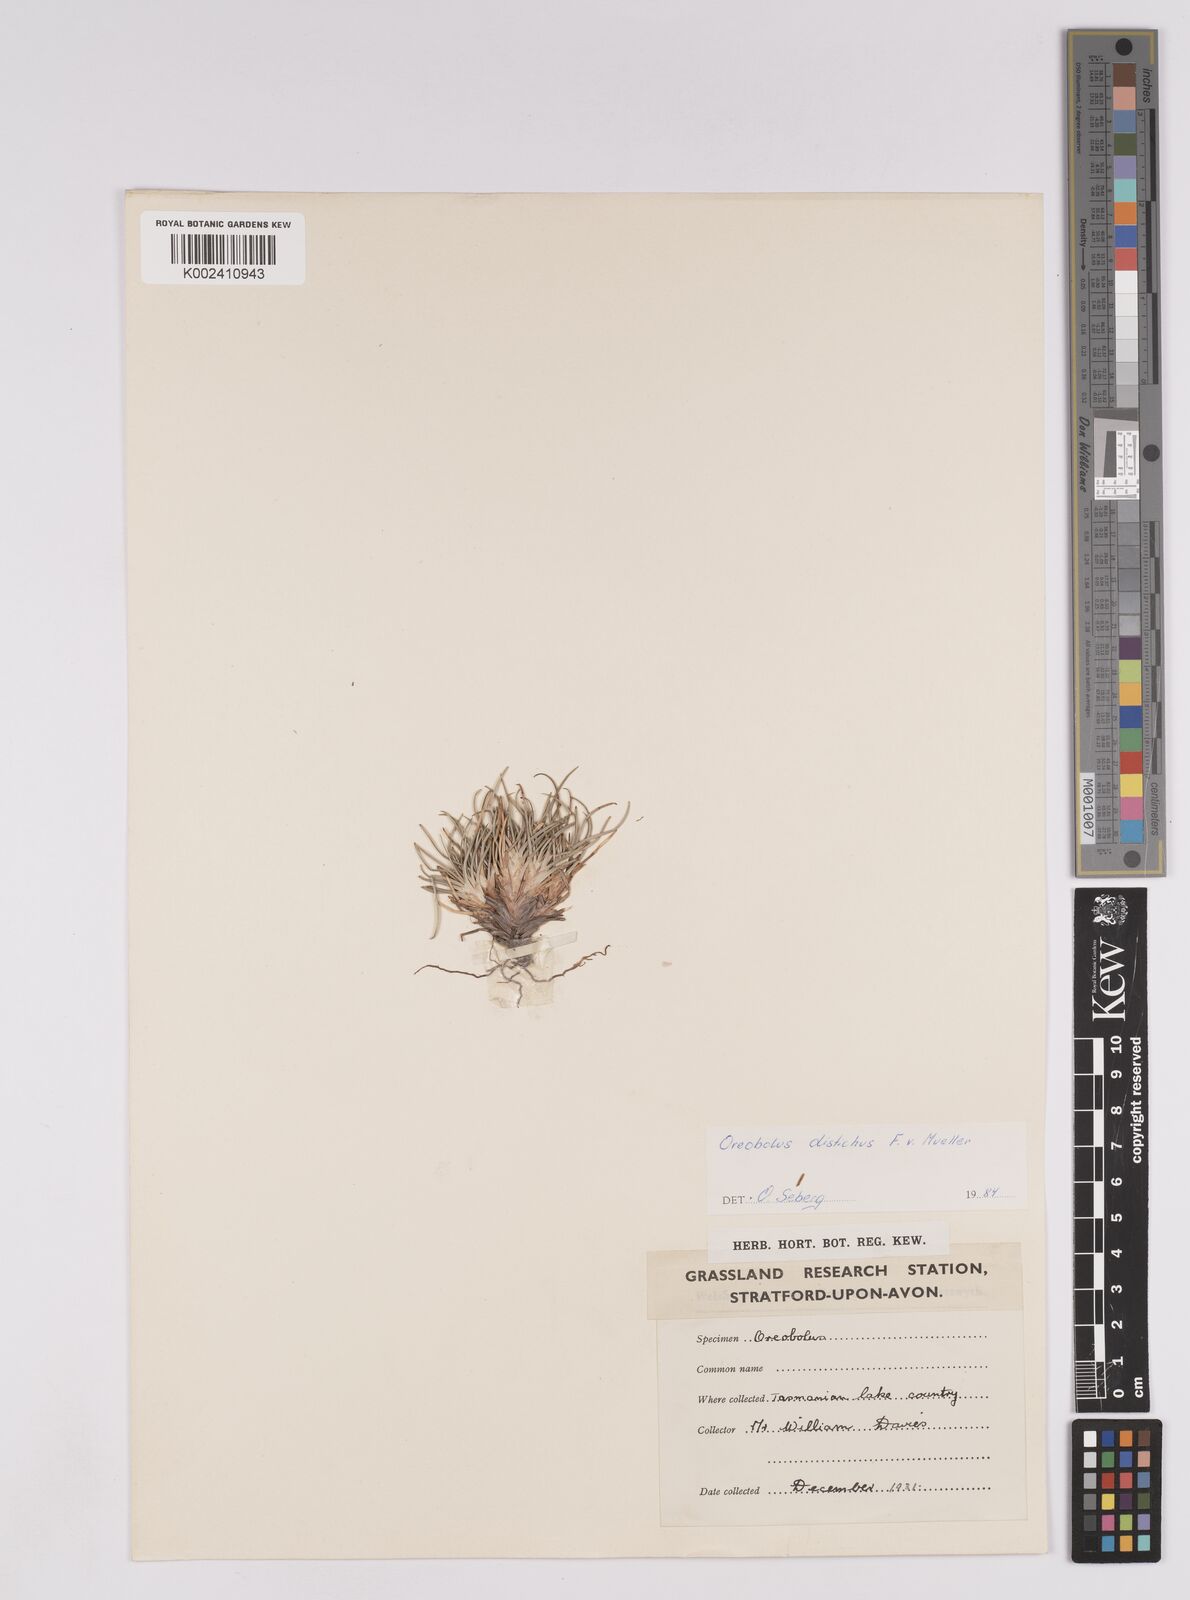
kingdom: Plantae
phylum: Tracheophyta
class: Liliopsida
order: Poales
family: Cyperaceae
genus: Oreobolus
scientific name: Oreobolus pumilio
